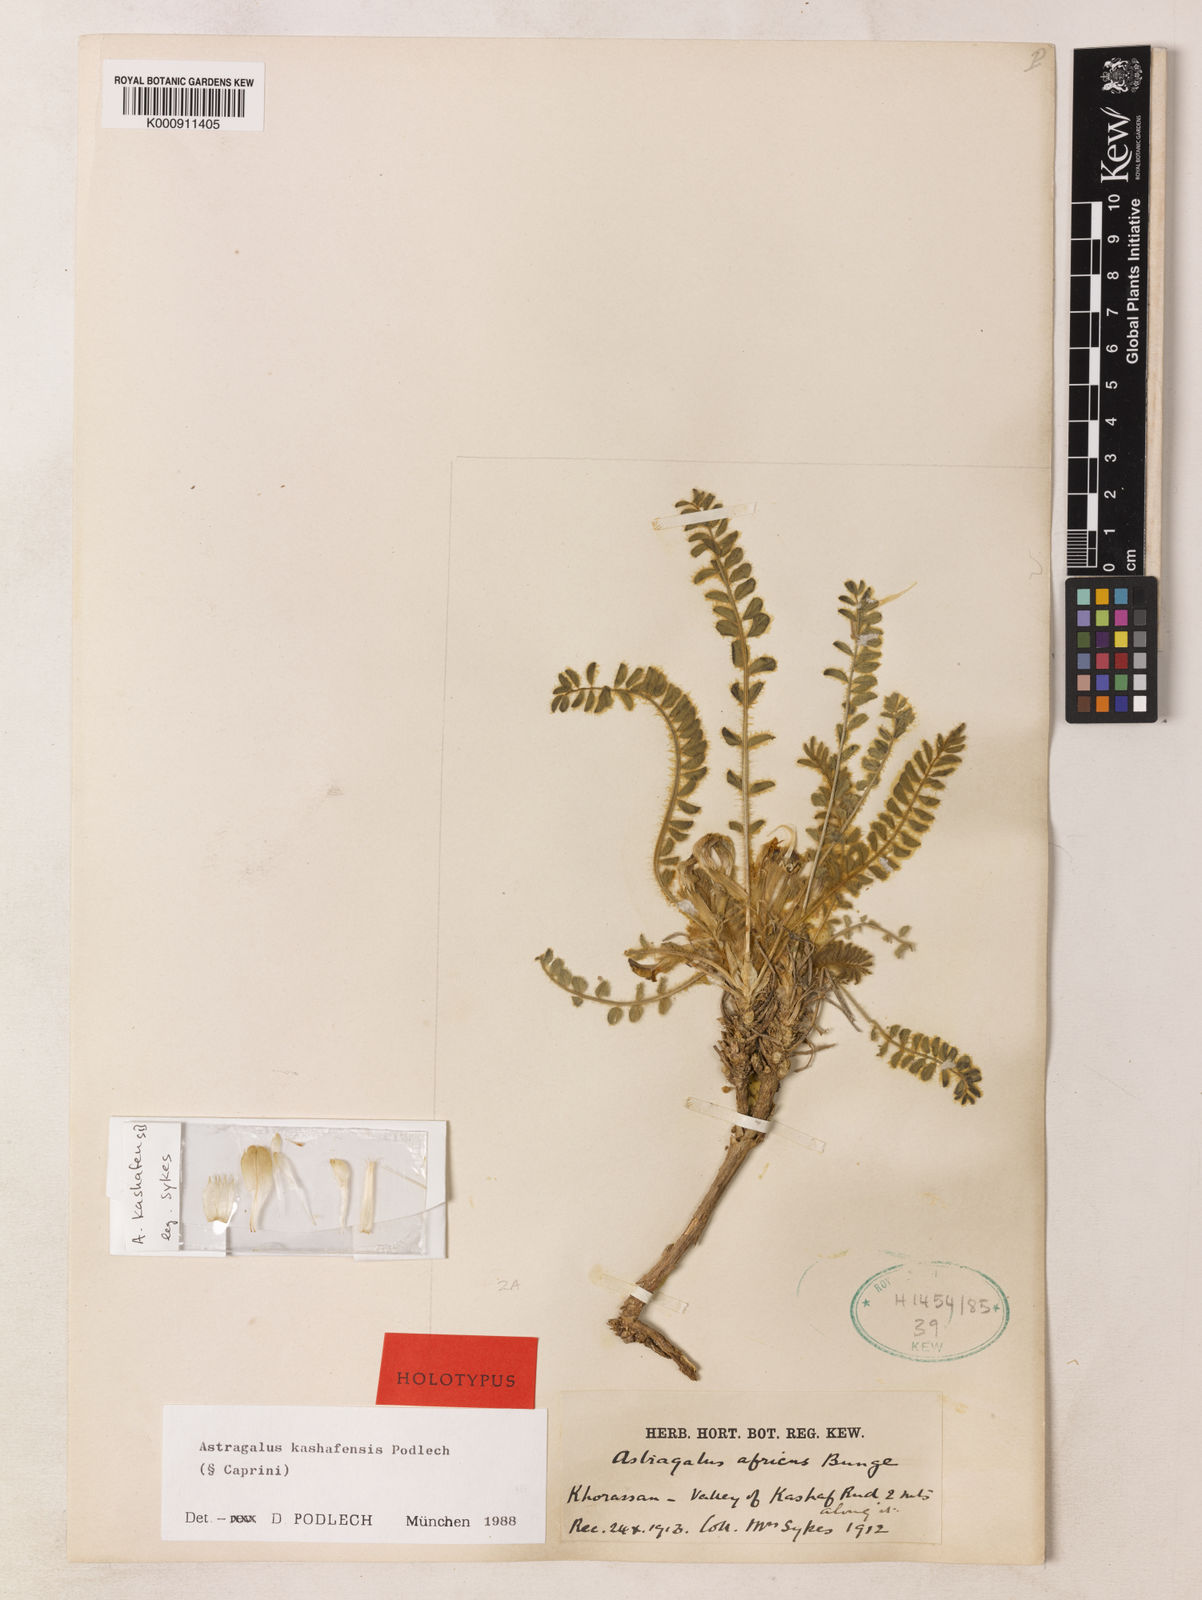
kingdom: Plantae
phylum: Tracheophyta
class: Magnoliopsida
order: Fabales
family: Fabaceae
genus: Astragalus
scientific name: Astragalus kashafensis
